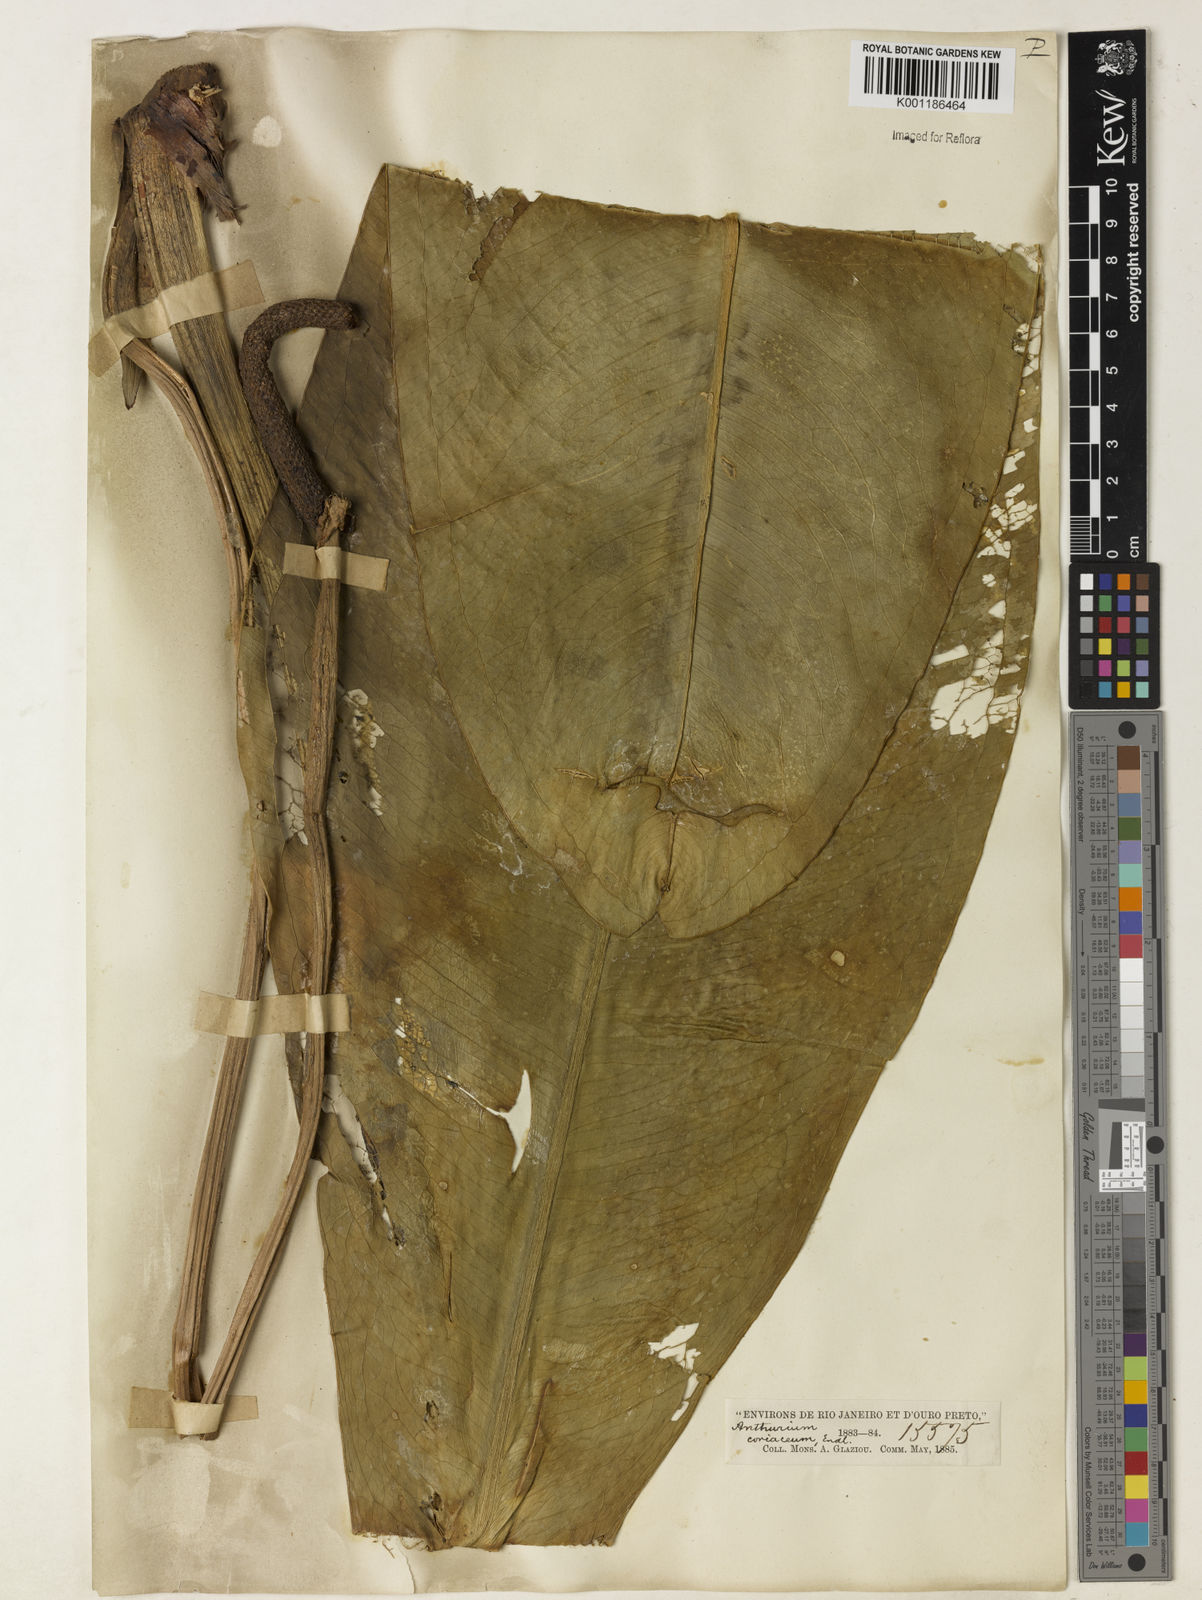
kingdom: Plantae
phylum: Tracheophyta
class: Liliopsida
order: Alismatales
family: Araceae
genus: Anthurium
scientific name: Anthurium coriaceum
